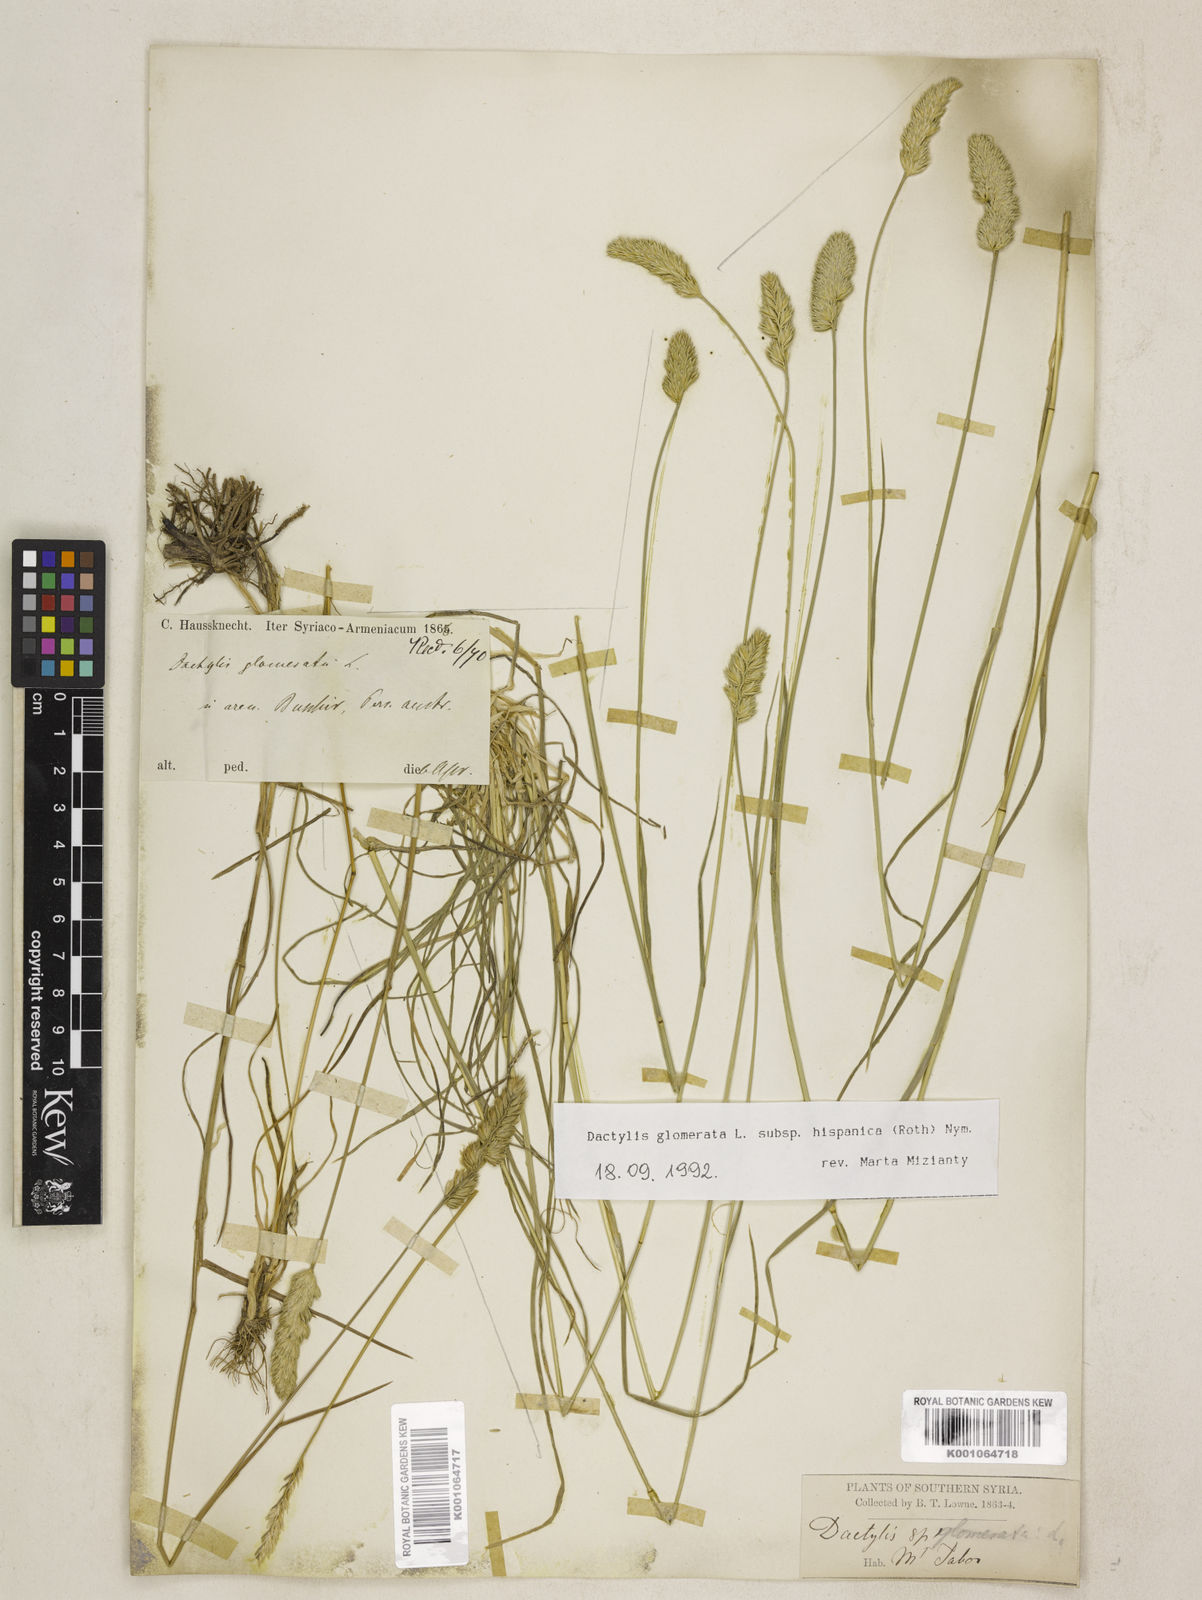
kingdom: Plantae
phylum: Tracheophyta
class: Liliopsida
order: Poales
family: Poaceae
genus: Dactylis
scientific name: Dactylis glomerata
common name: Orchardgrass
